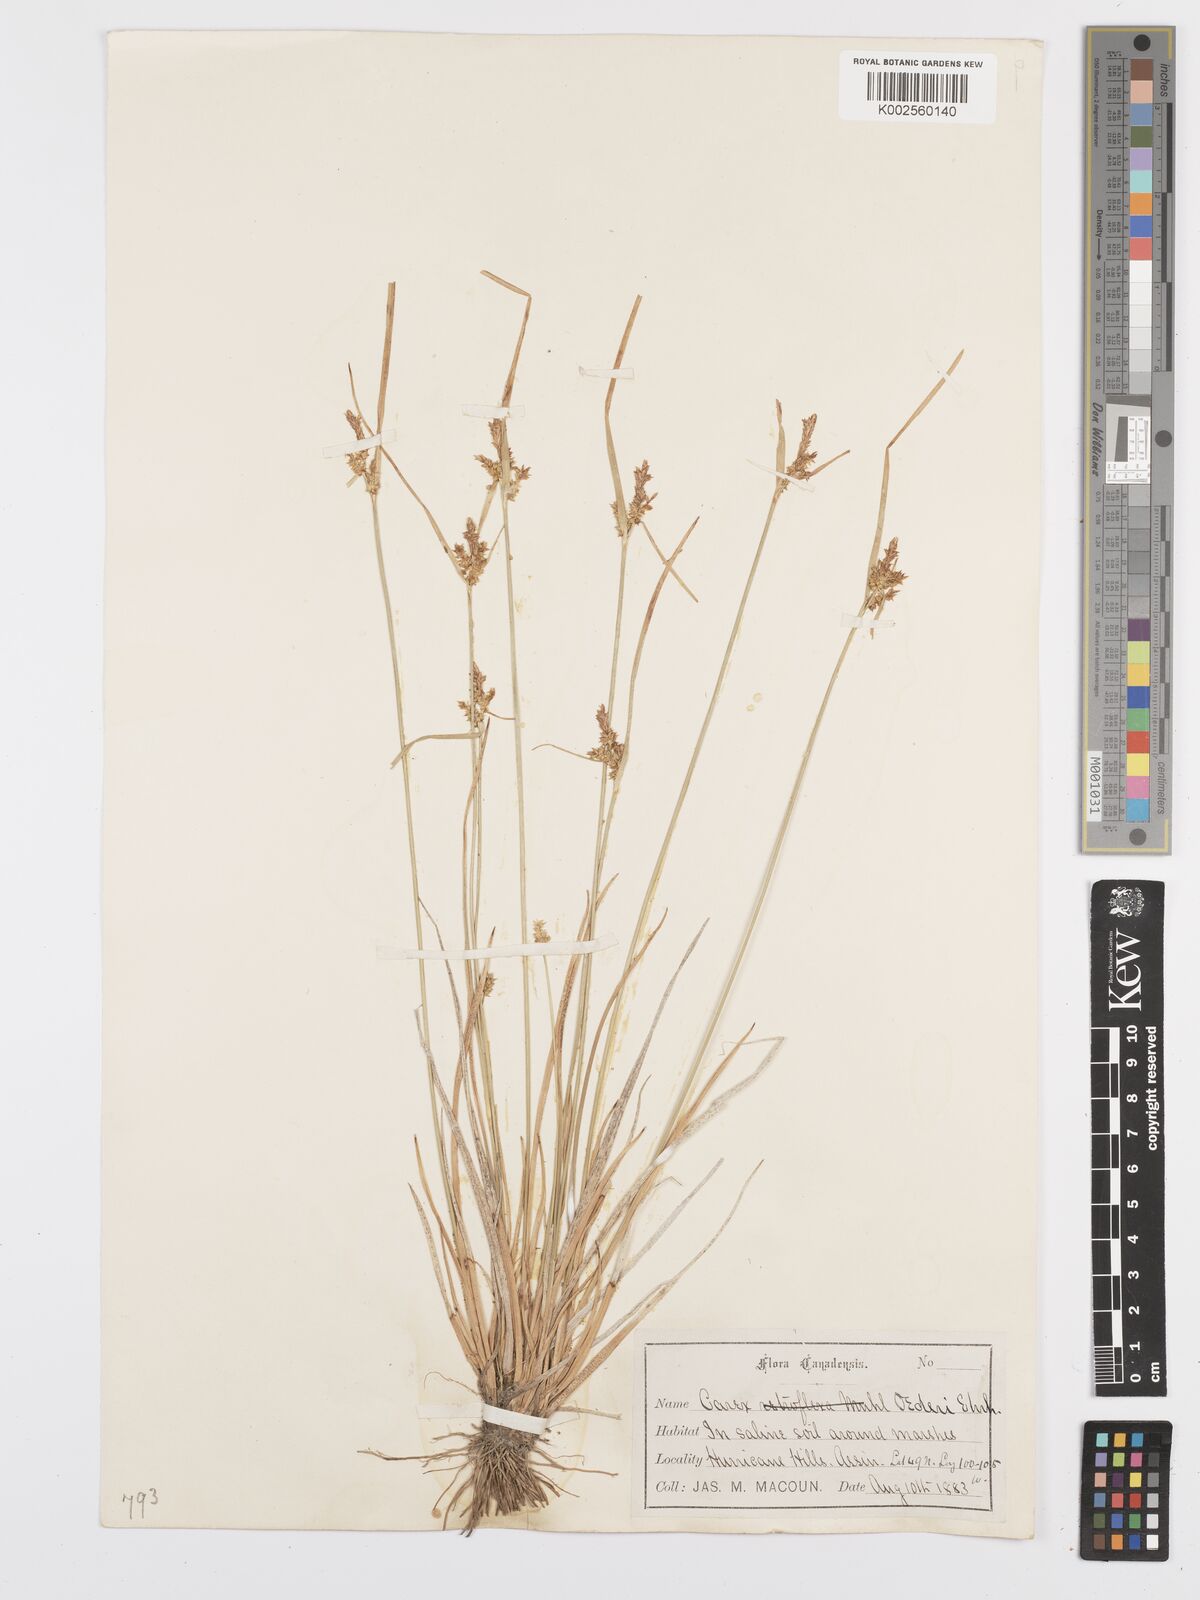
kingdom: Plantae
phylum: Tracheophyta
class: Liliopsida
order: Poales
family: Cyperaceae
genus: Carex
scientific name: Carex oederi
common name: Common & small-fruited yellow-sedge
